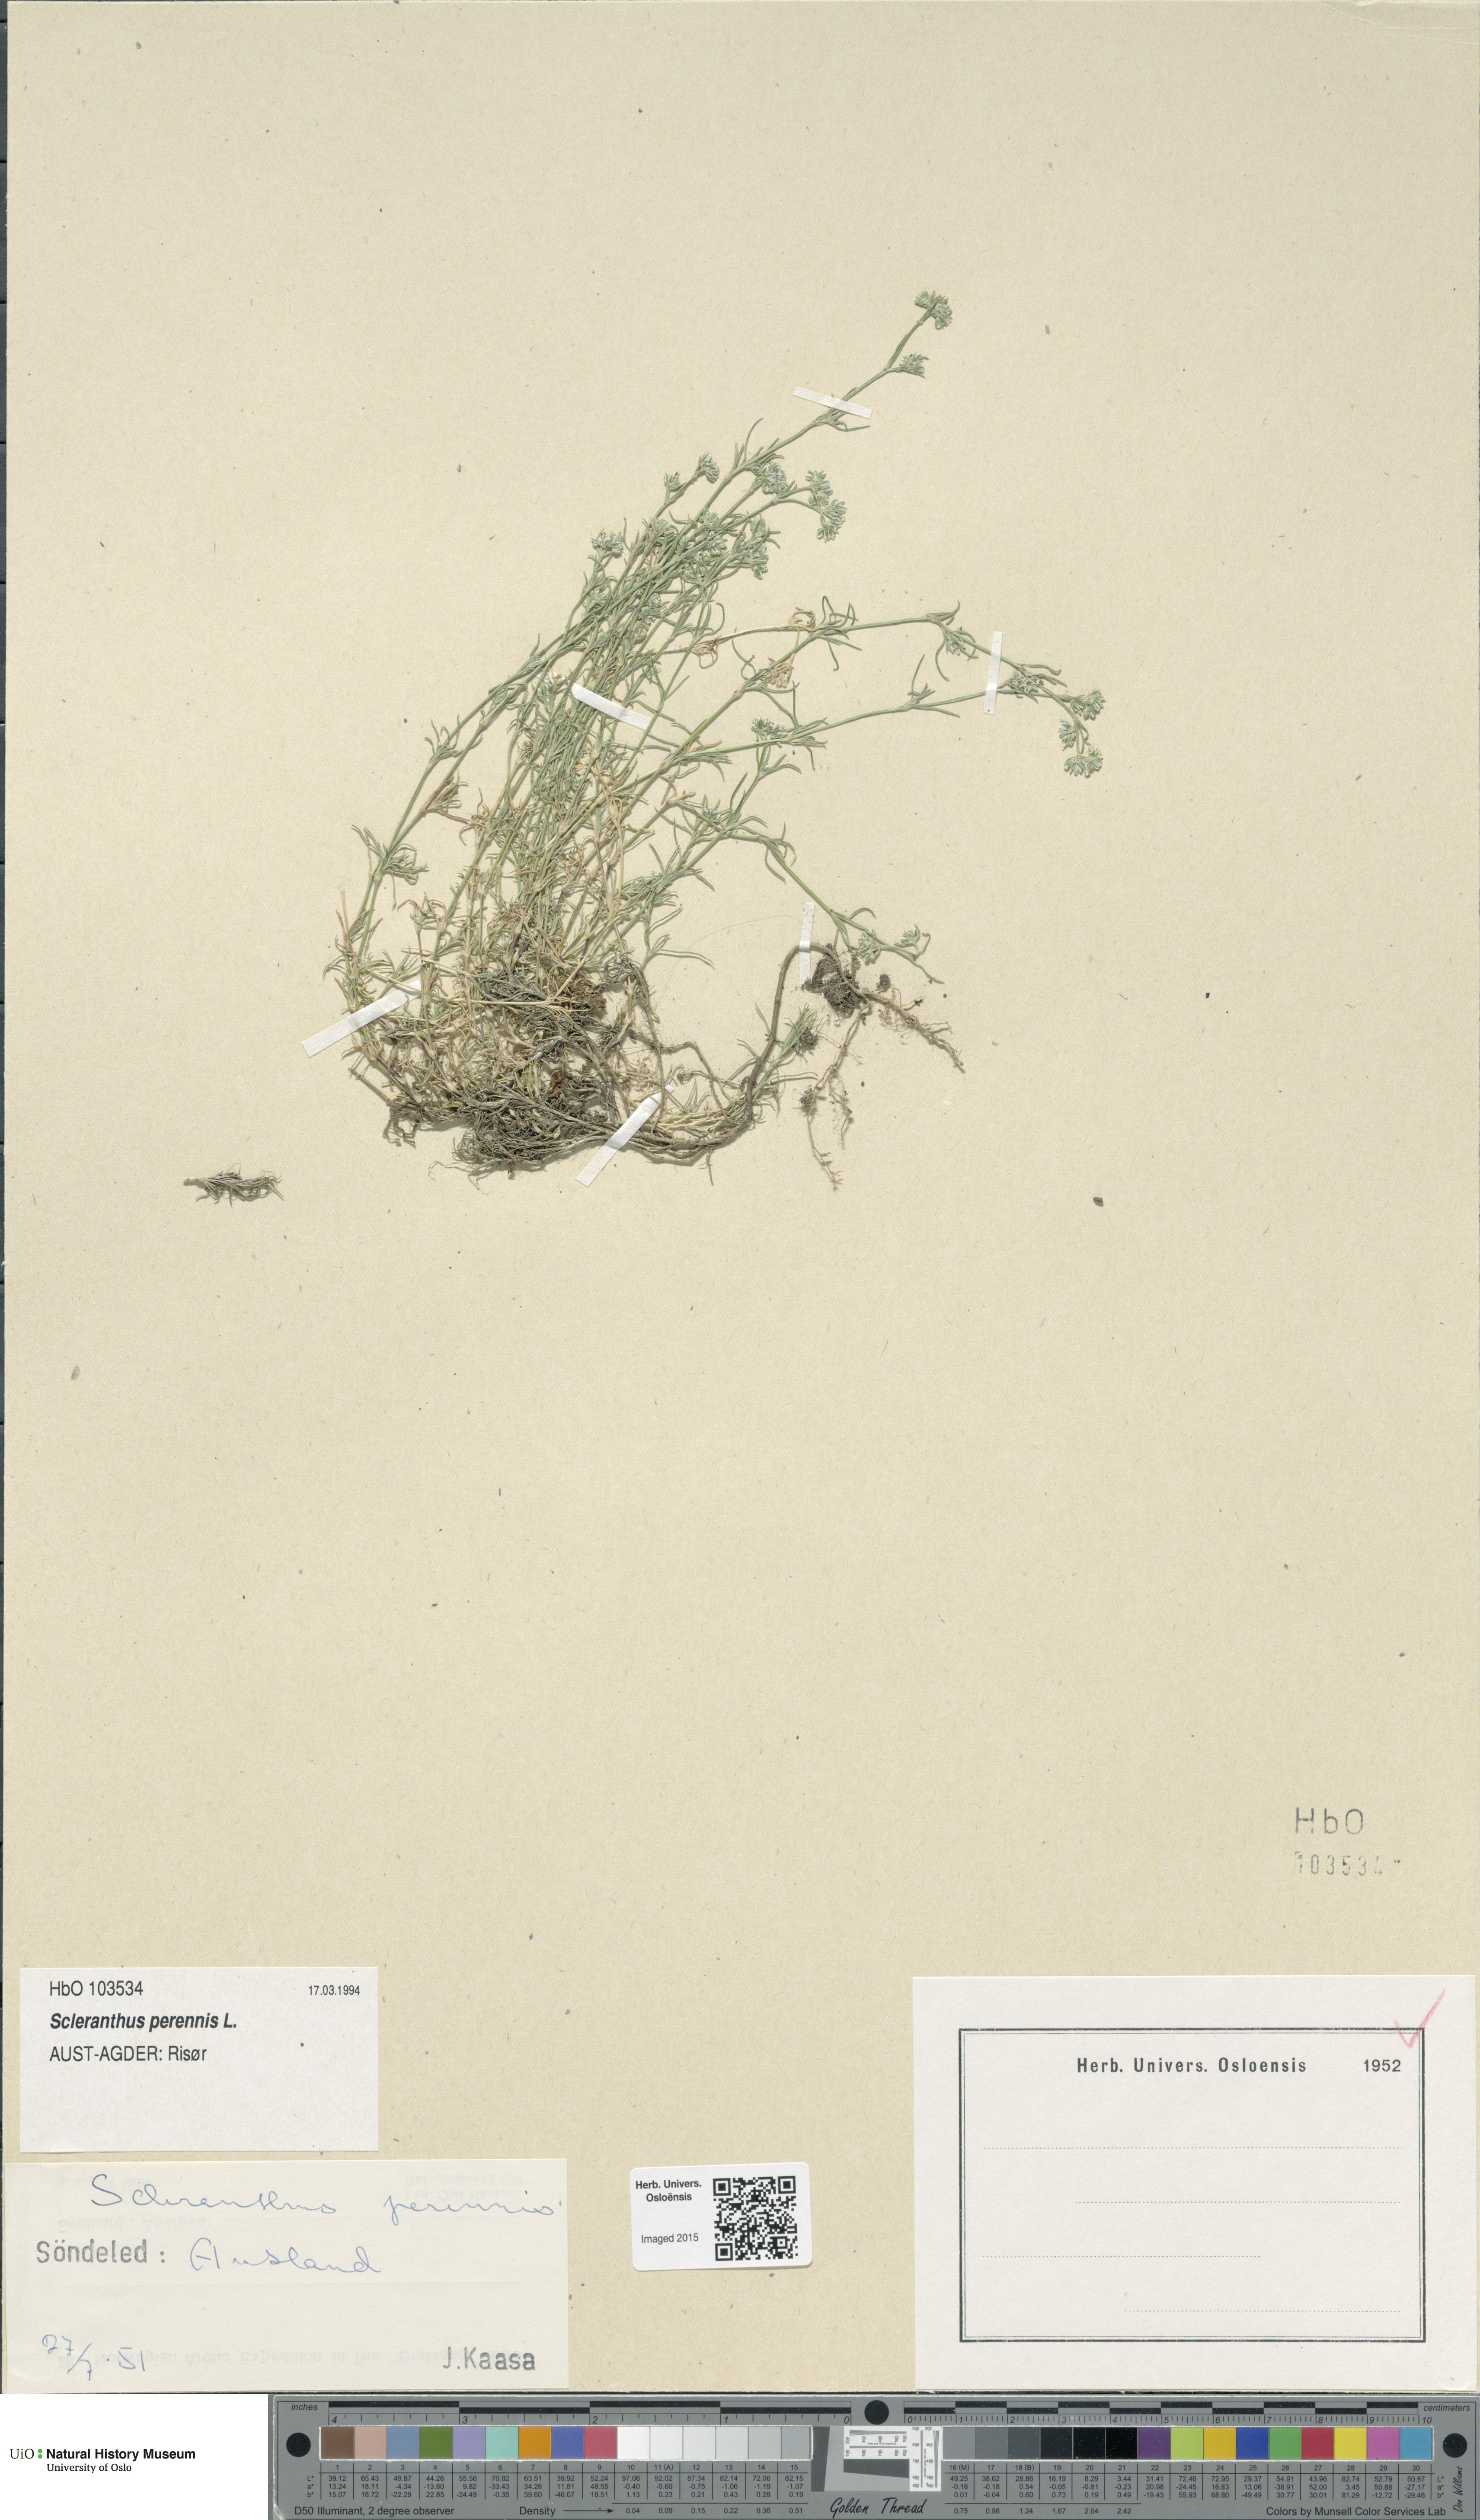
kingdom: Plantae
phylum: Tracheophyta
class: Magnoliopsida
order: Caryophyllales
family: Caryophyllaceae
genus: Scleranthus
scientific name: Scleranthus perennis
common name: Perennial knawel
